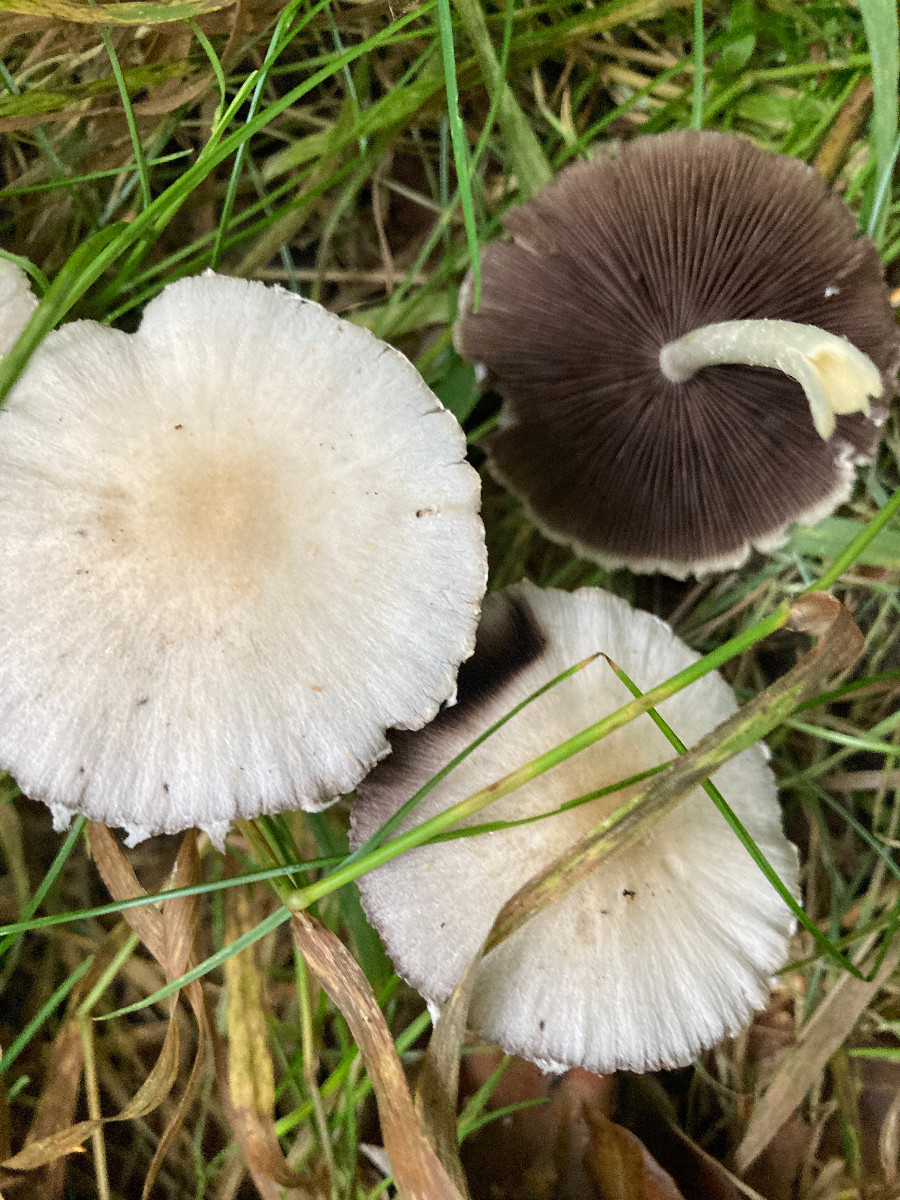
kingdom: Fungi
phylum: Basidiomycota
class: Agaricomycetes
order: Agaricales
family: Psathyrellaceae
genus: Candolleomyces
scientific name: Candolleomyces candolleanus
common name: Candolles mørkhat
